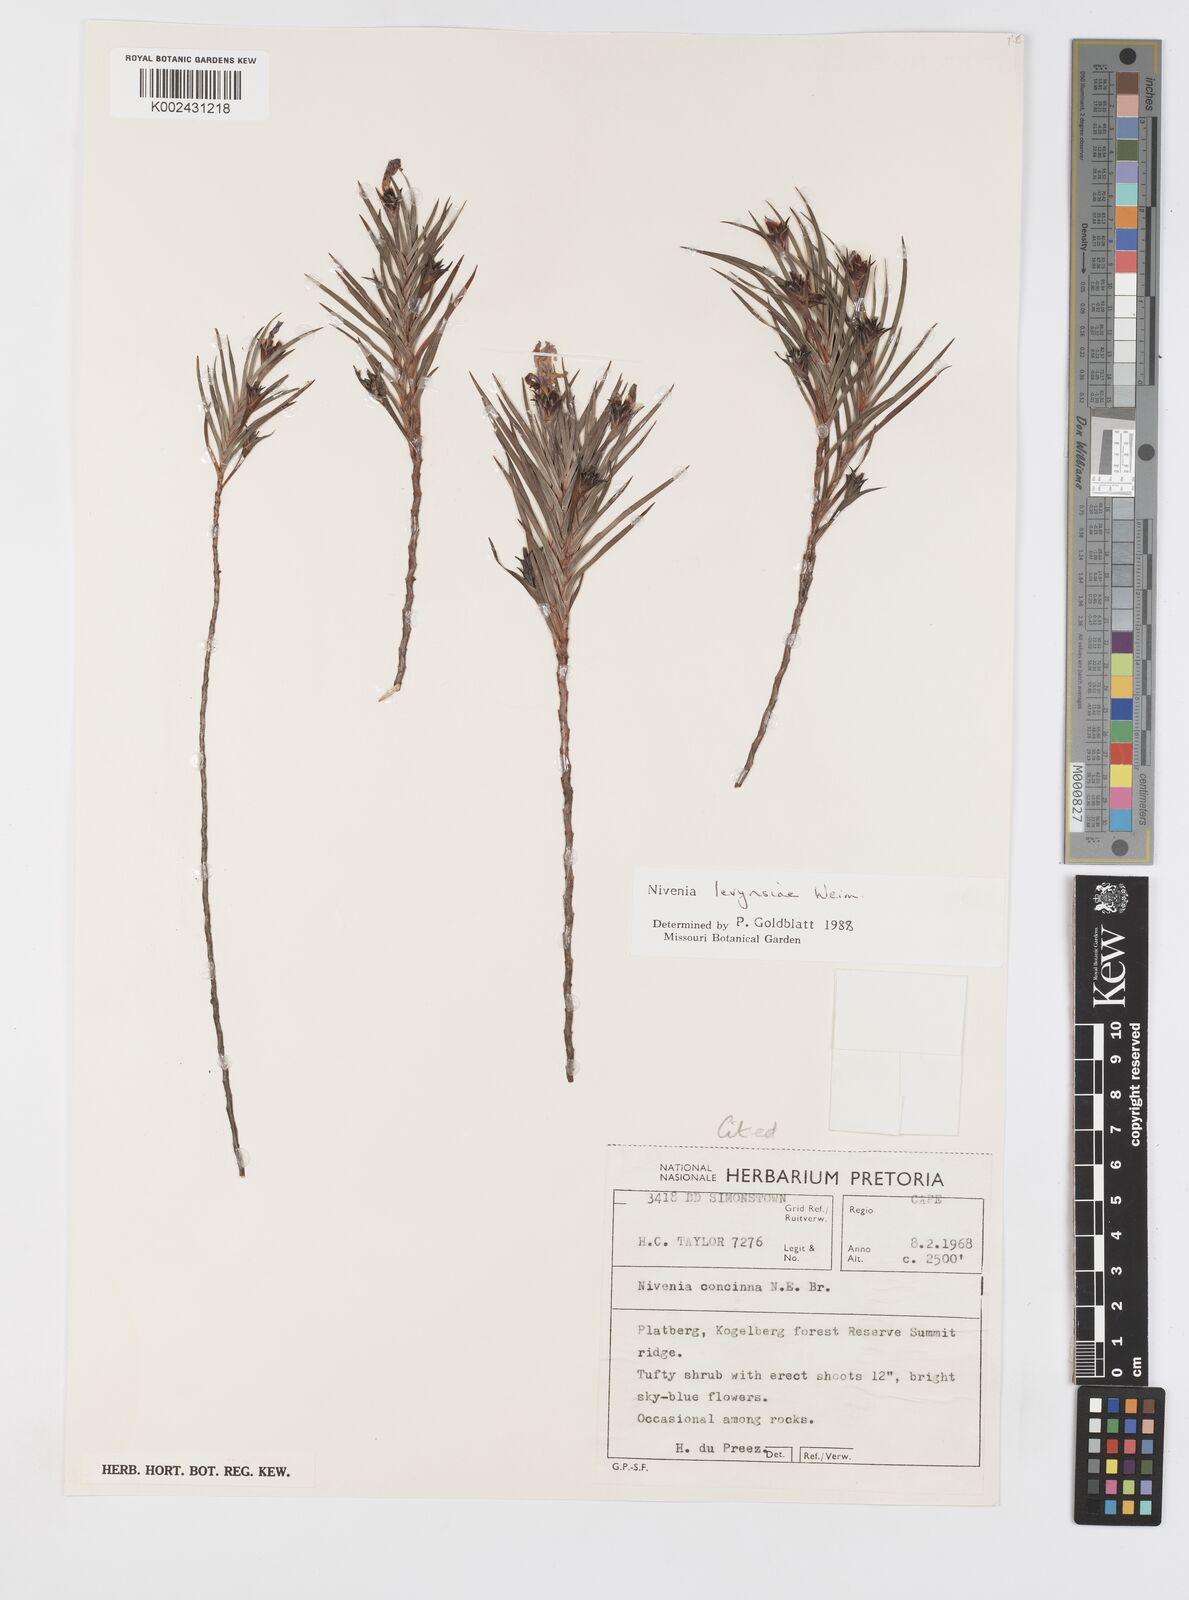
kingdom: Plantae
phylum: Tracheophyta
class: Liliopsida
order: Asparagales
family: Iridaceae
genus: Nivenia
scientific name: Nivenia levynsiae
